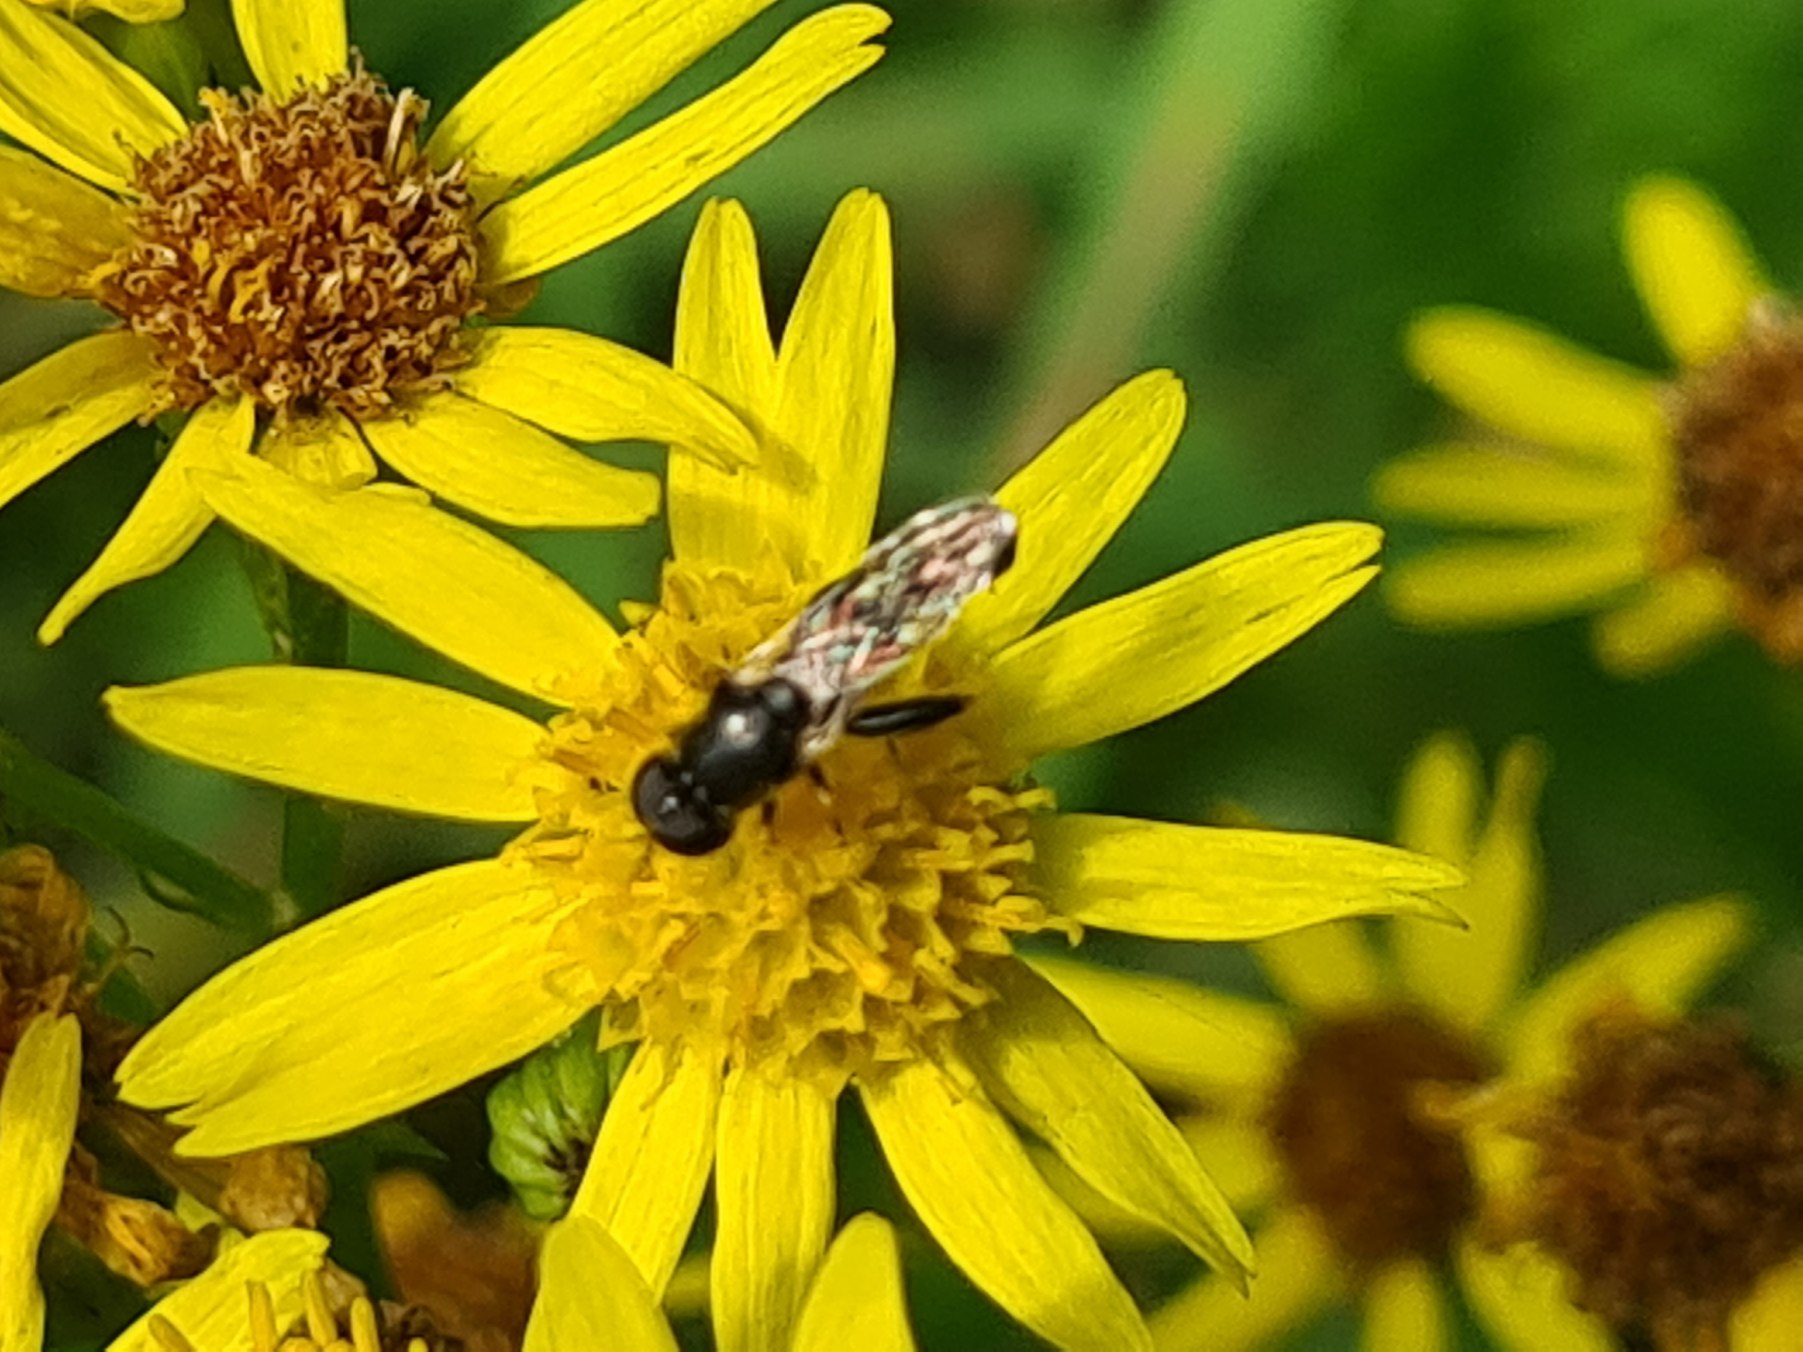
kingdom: Animalia
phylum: Arthropoda
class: Insecta
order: Diptera
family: Syrphidae
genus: Syritta
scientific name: Syritta pipiens
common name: Kompost-svirreflue
